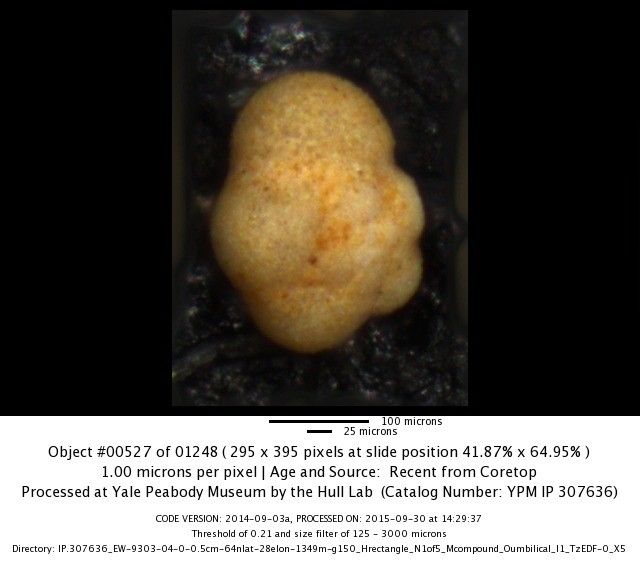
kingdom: Chromista
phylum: Foraminifera
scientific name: Foraminifera
